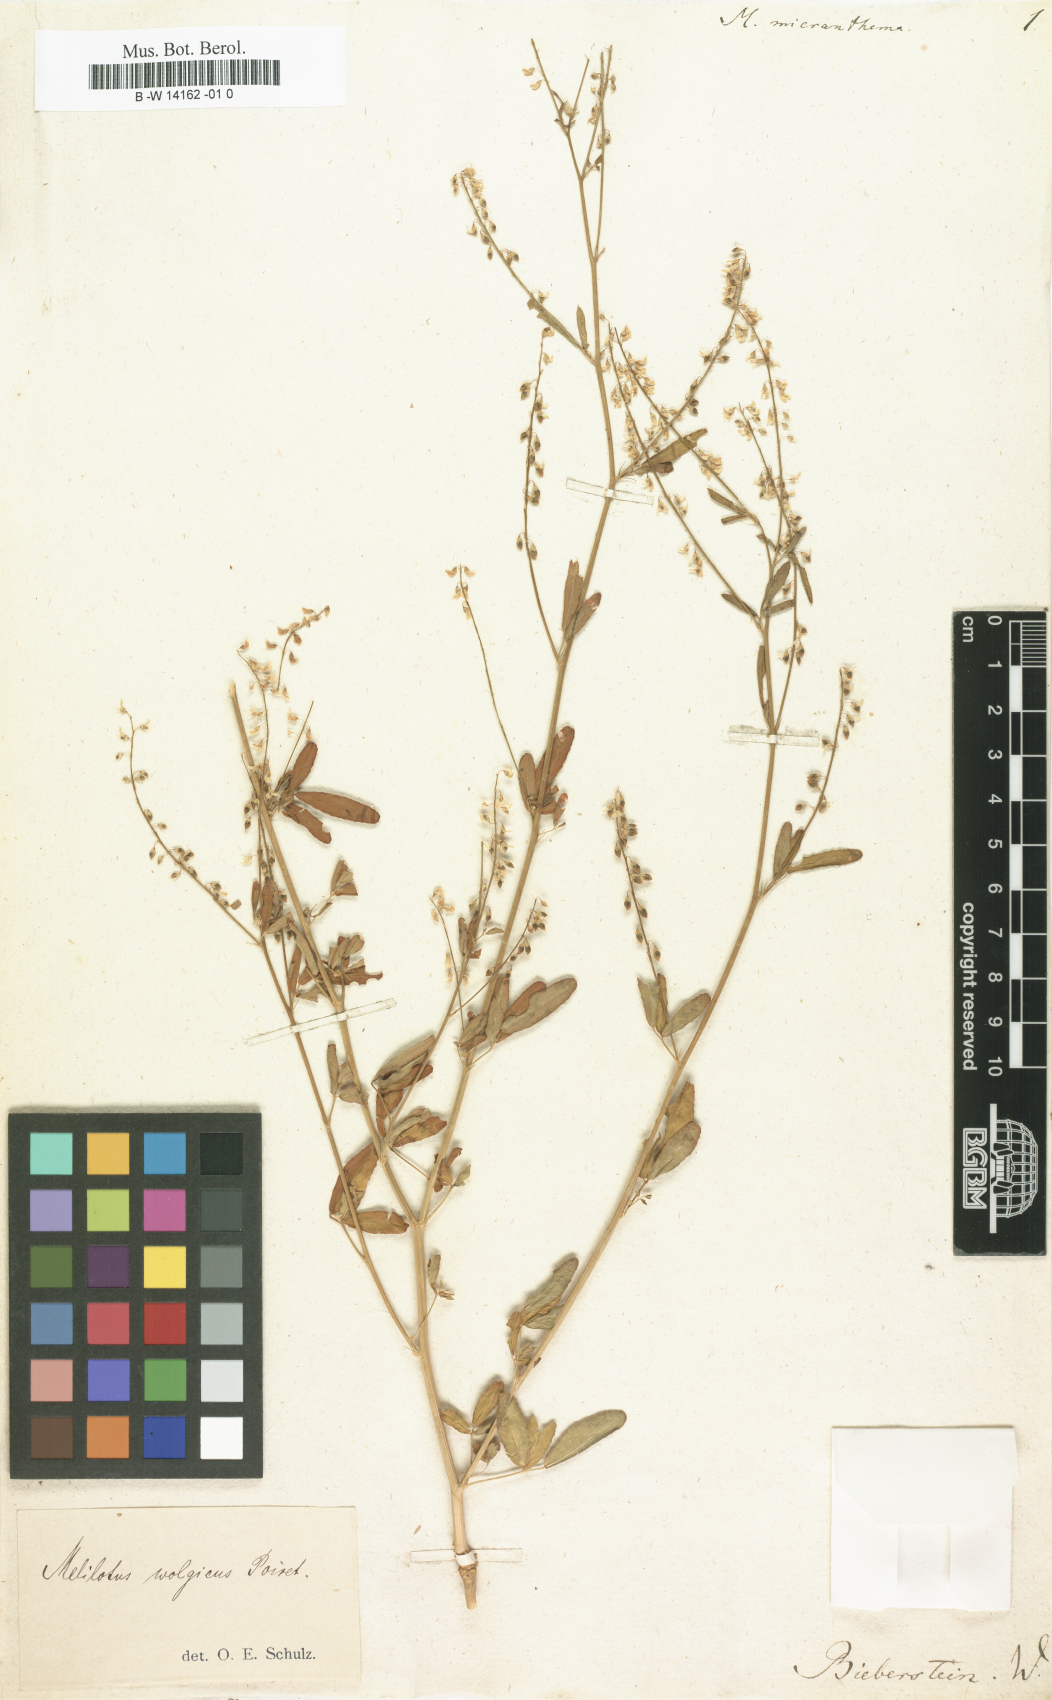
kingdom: Plantae
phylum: Tracheophyta
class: Magnoliopsida
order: Fabales
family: Fabaceae
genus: Melilotus
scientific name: Melilotus wolgicus
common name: Volga sweet-clover
